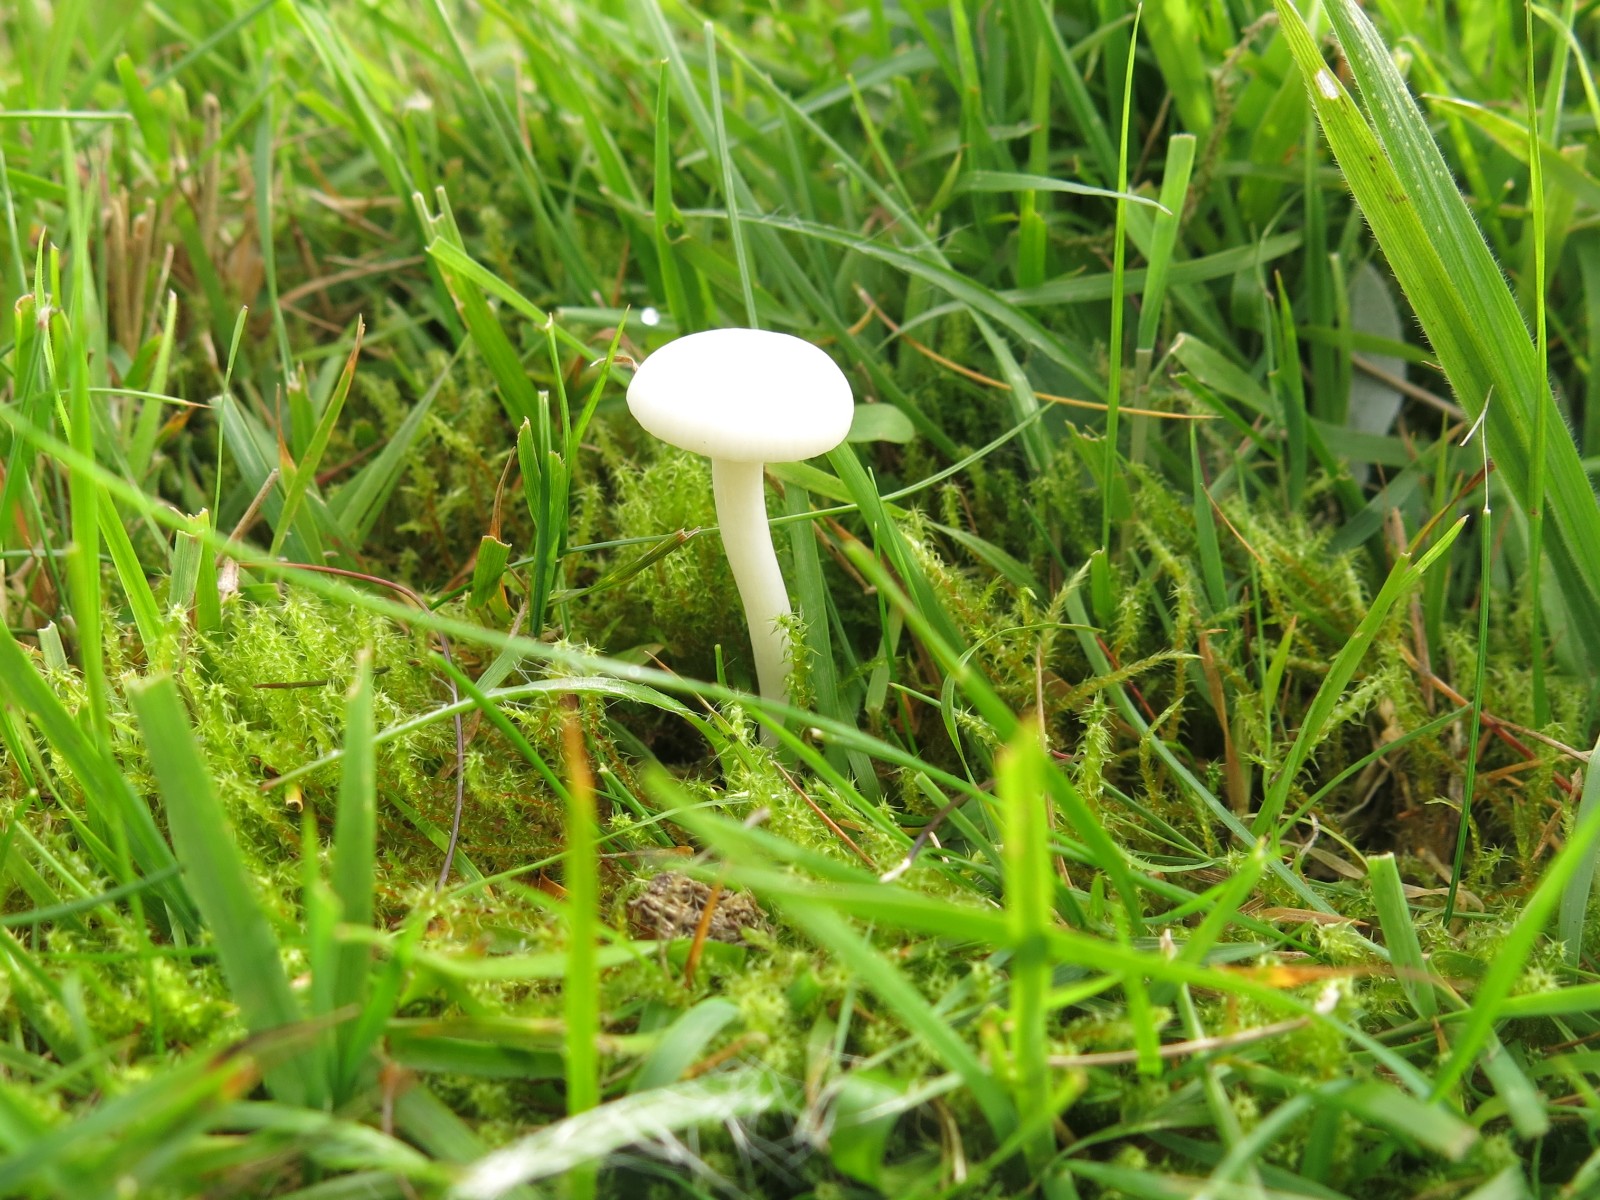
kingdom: Fungi
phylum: Basidiomycota
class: Agaricomycetes
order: Agaricales
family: Hygrophoraceae
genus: Cuphophyllus
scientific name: Cuphophyllus virgineus
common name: snehvid vokshat
